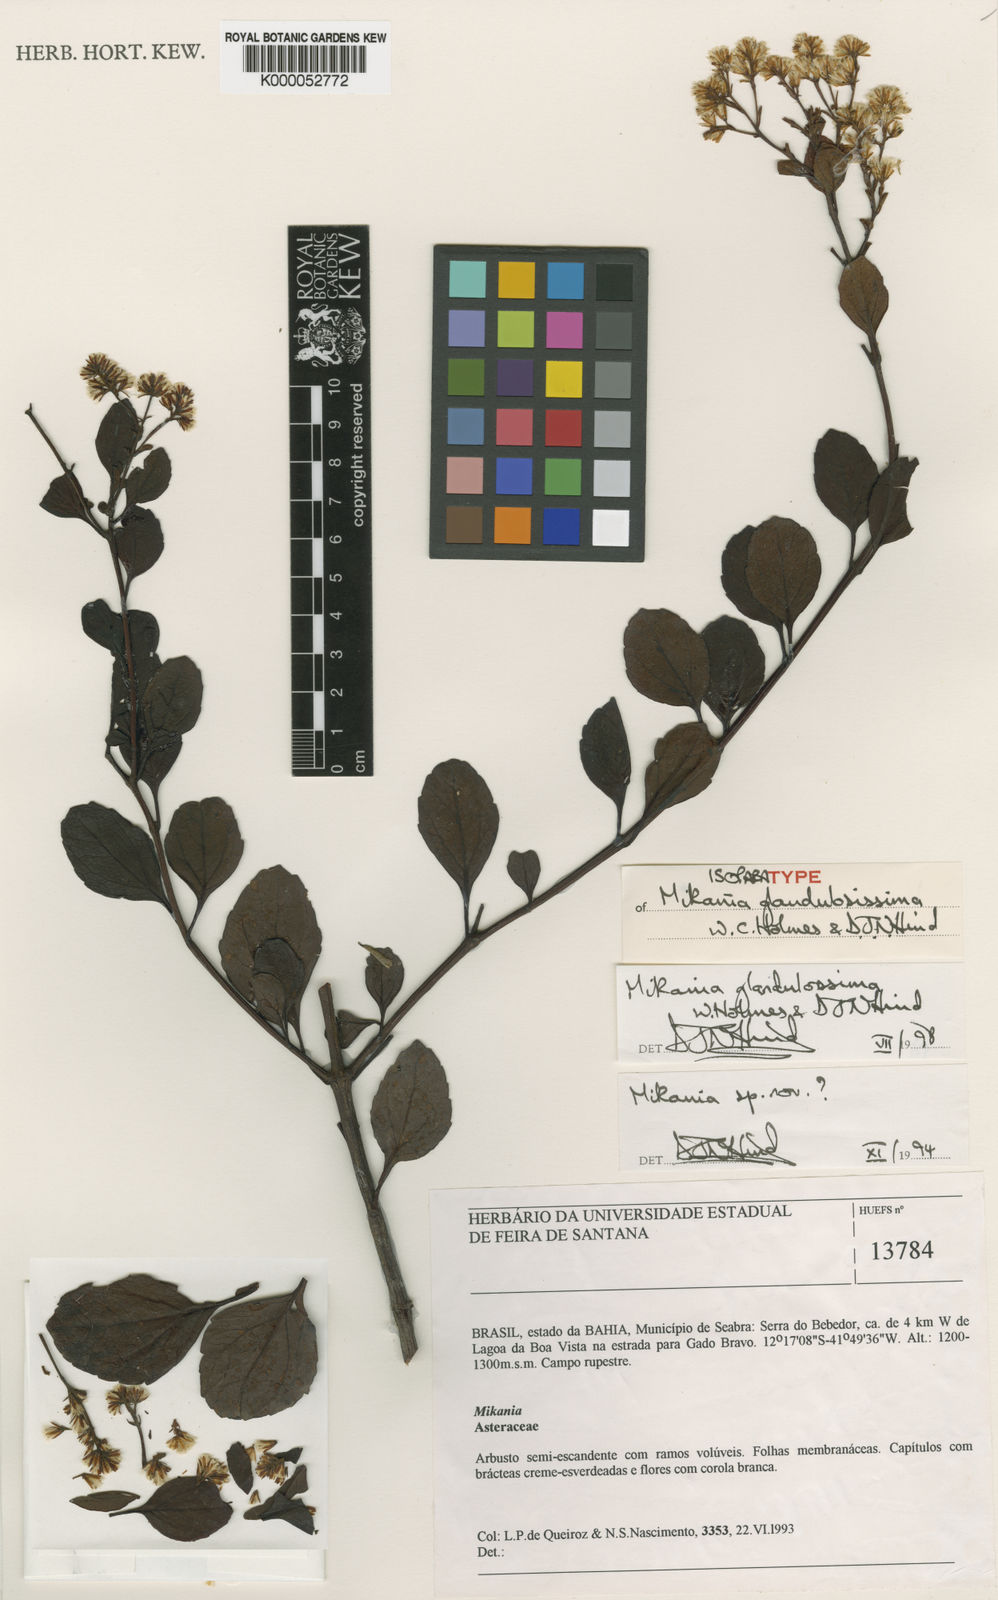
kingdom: Plantae
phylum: Tracheophyta
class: Magnoliopsida
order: Asterales
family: Asteraceae
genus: Mikania
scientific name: Mikania glandulosissima
